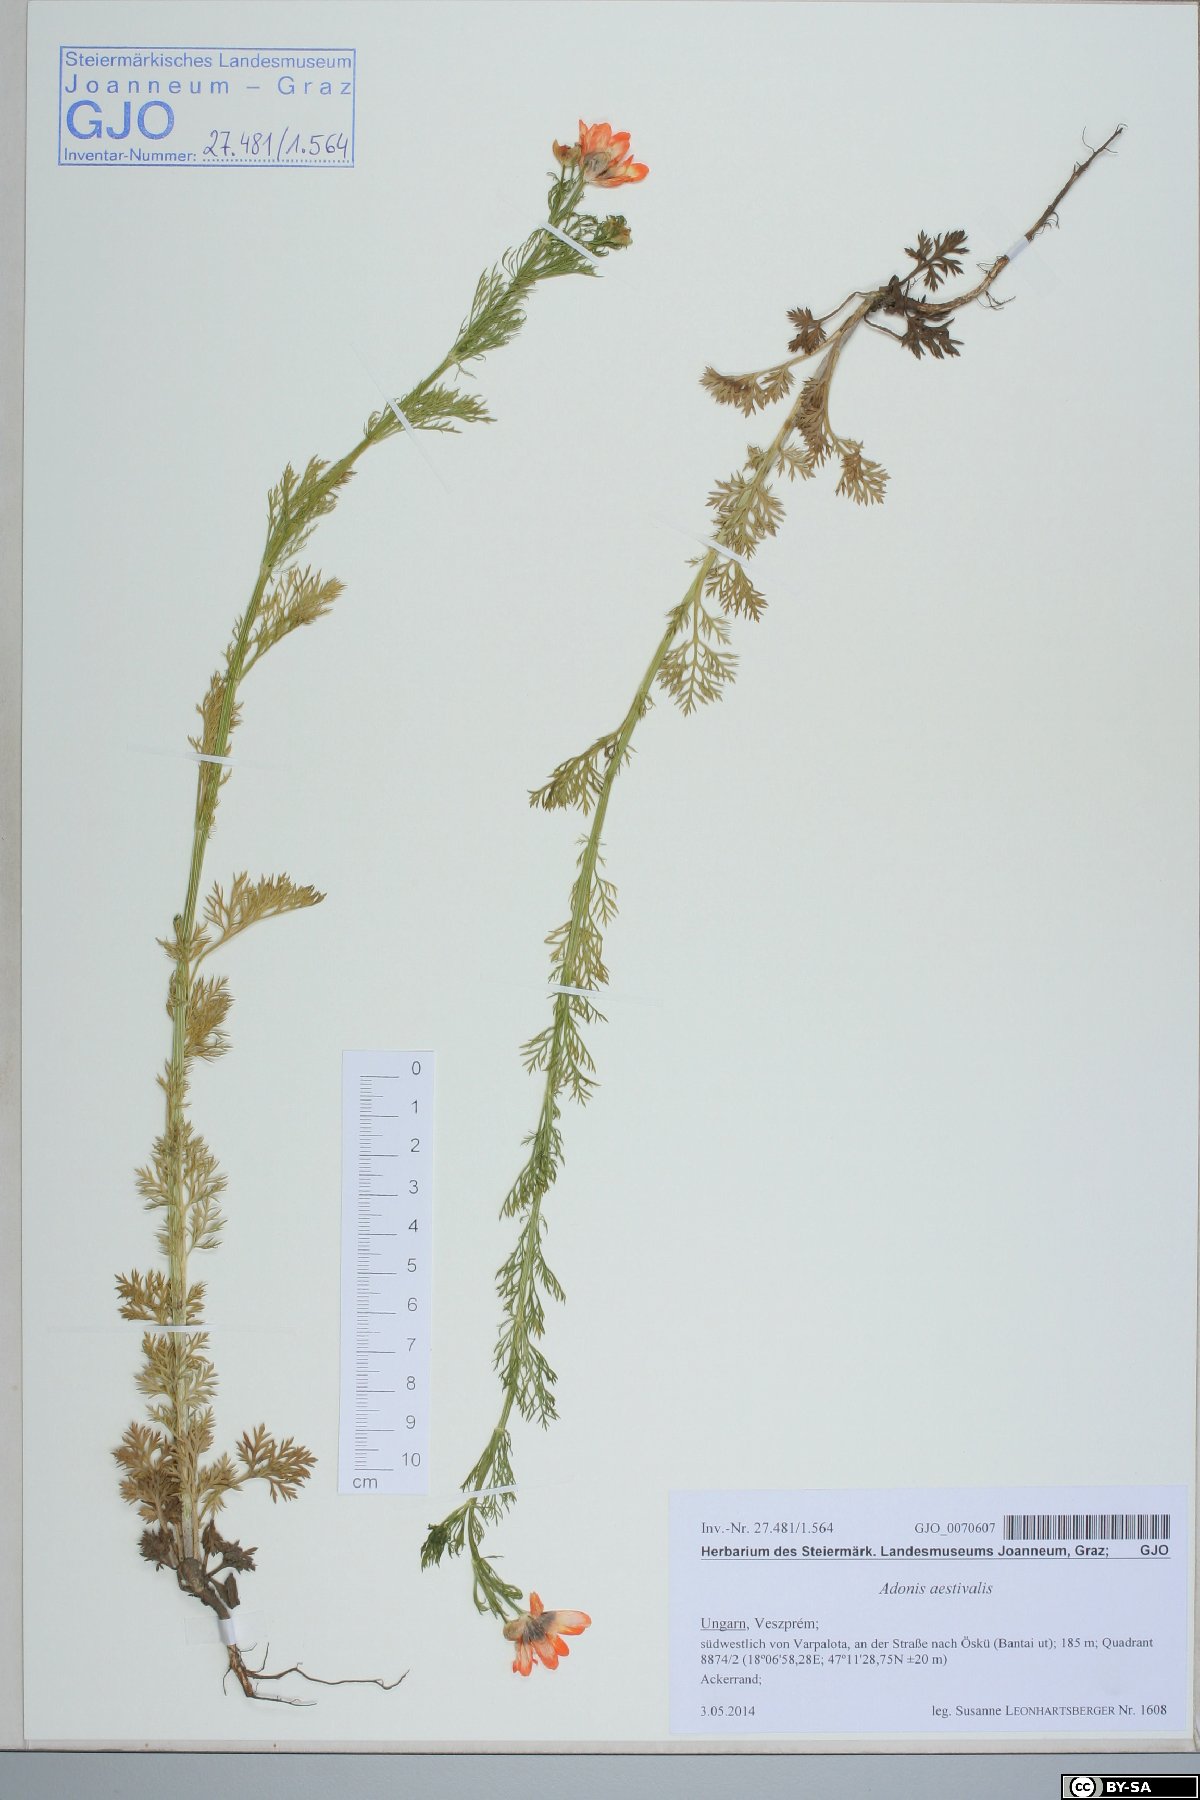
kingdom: Plantae
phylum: Tracheophyta
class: Magnoliopsida
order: Ranunculales
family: Ranunculaceae
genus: Adonis
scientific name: Adonis aestivalis
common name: Summer pheasant's-eye
